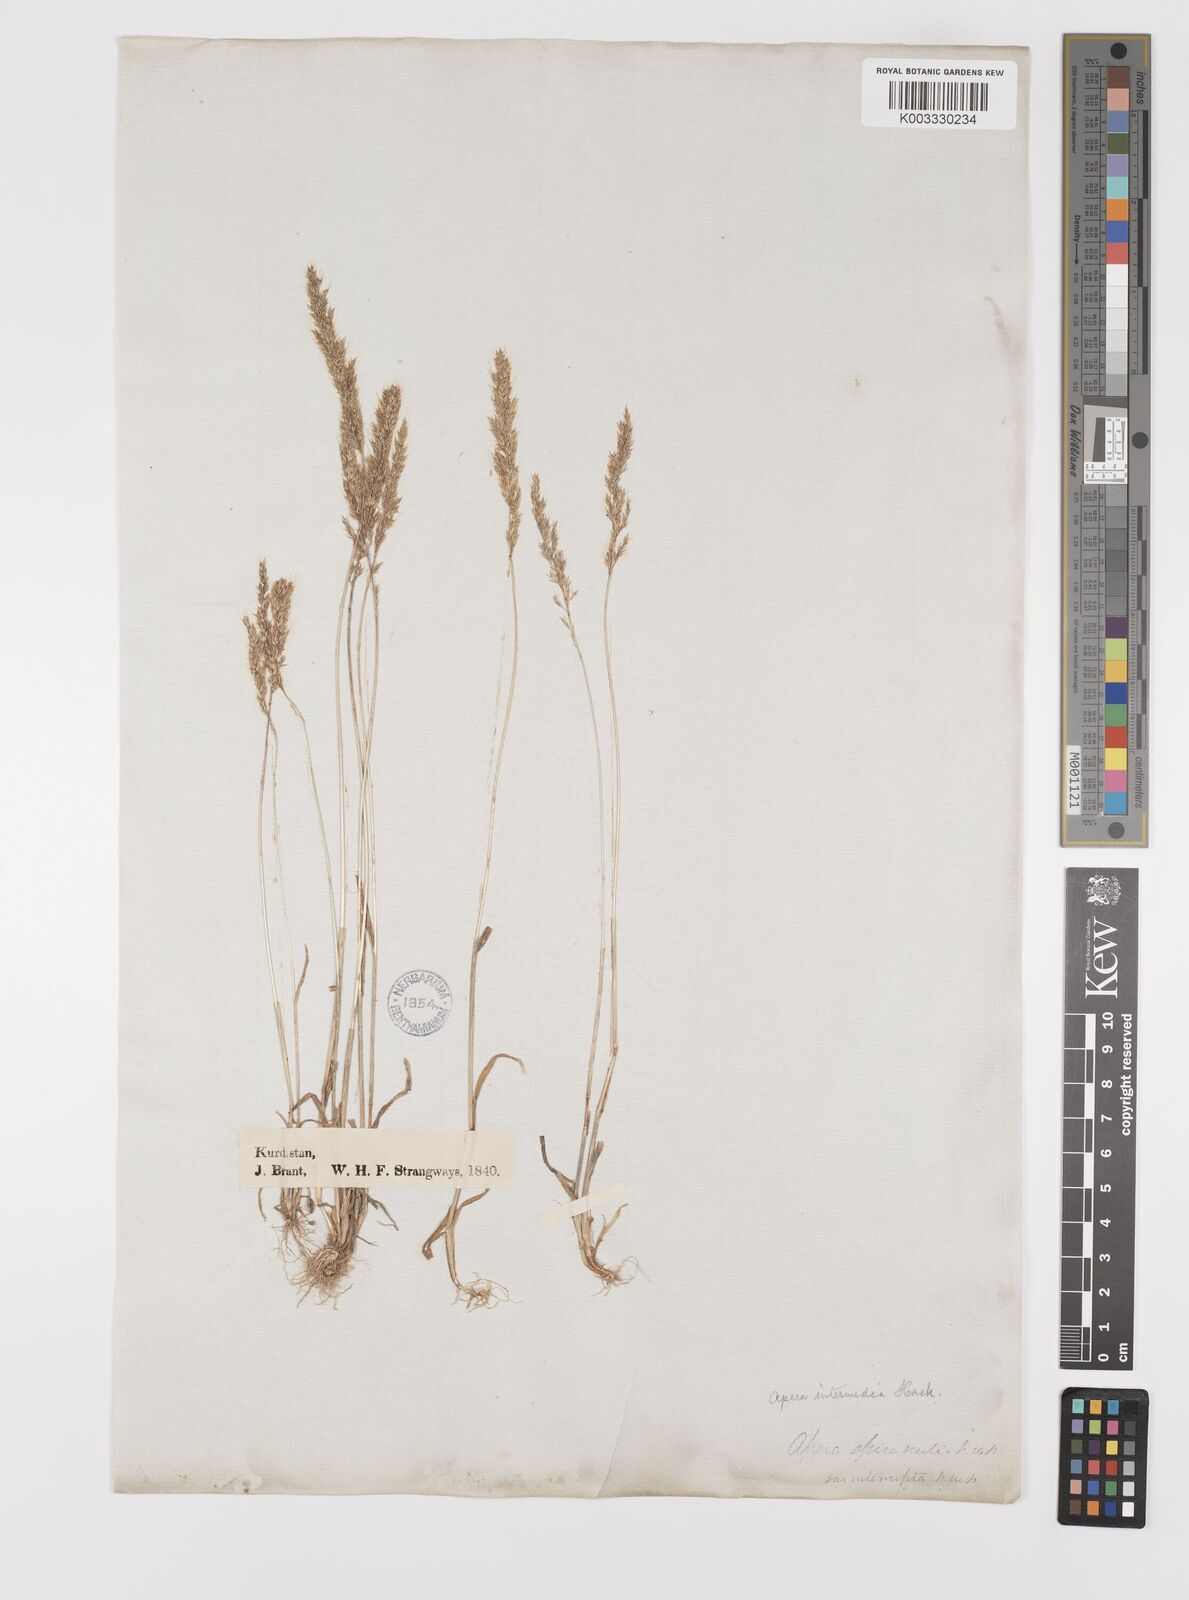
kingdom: Plantae
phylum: Tracheophyta
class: Liliopsida
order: Poales
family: Poaceae
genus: Apera
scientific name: Apera intermedia
